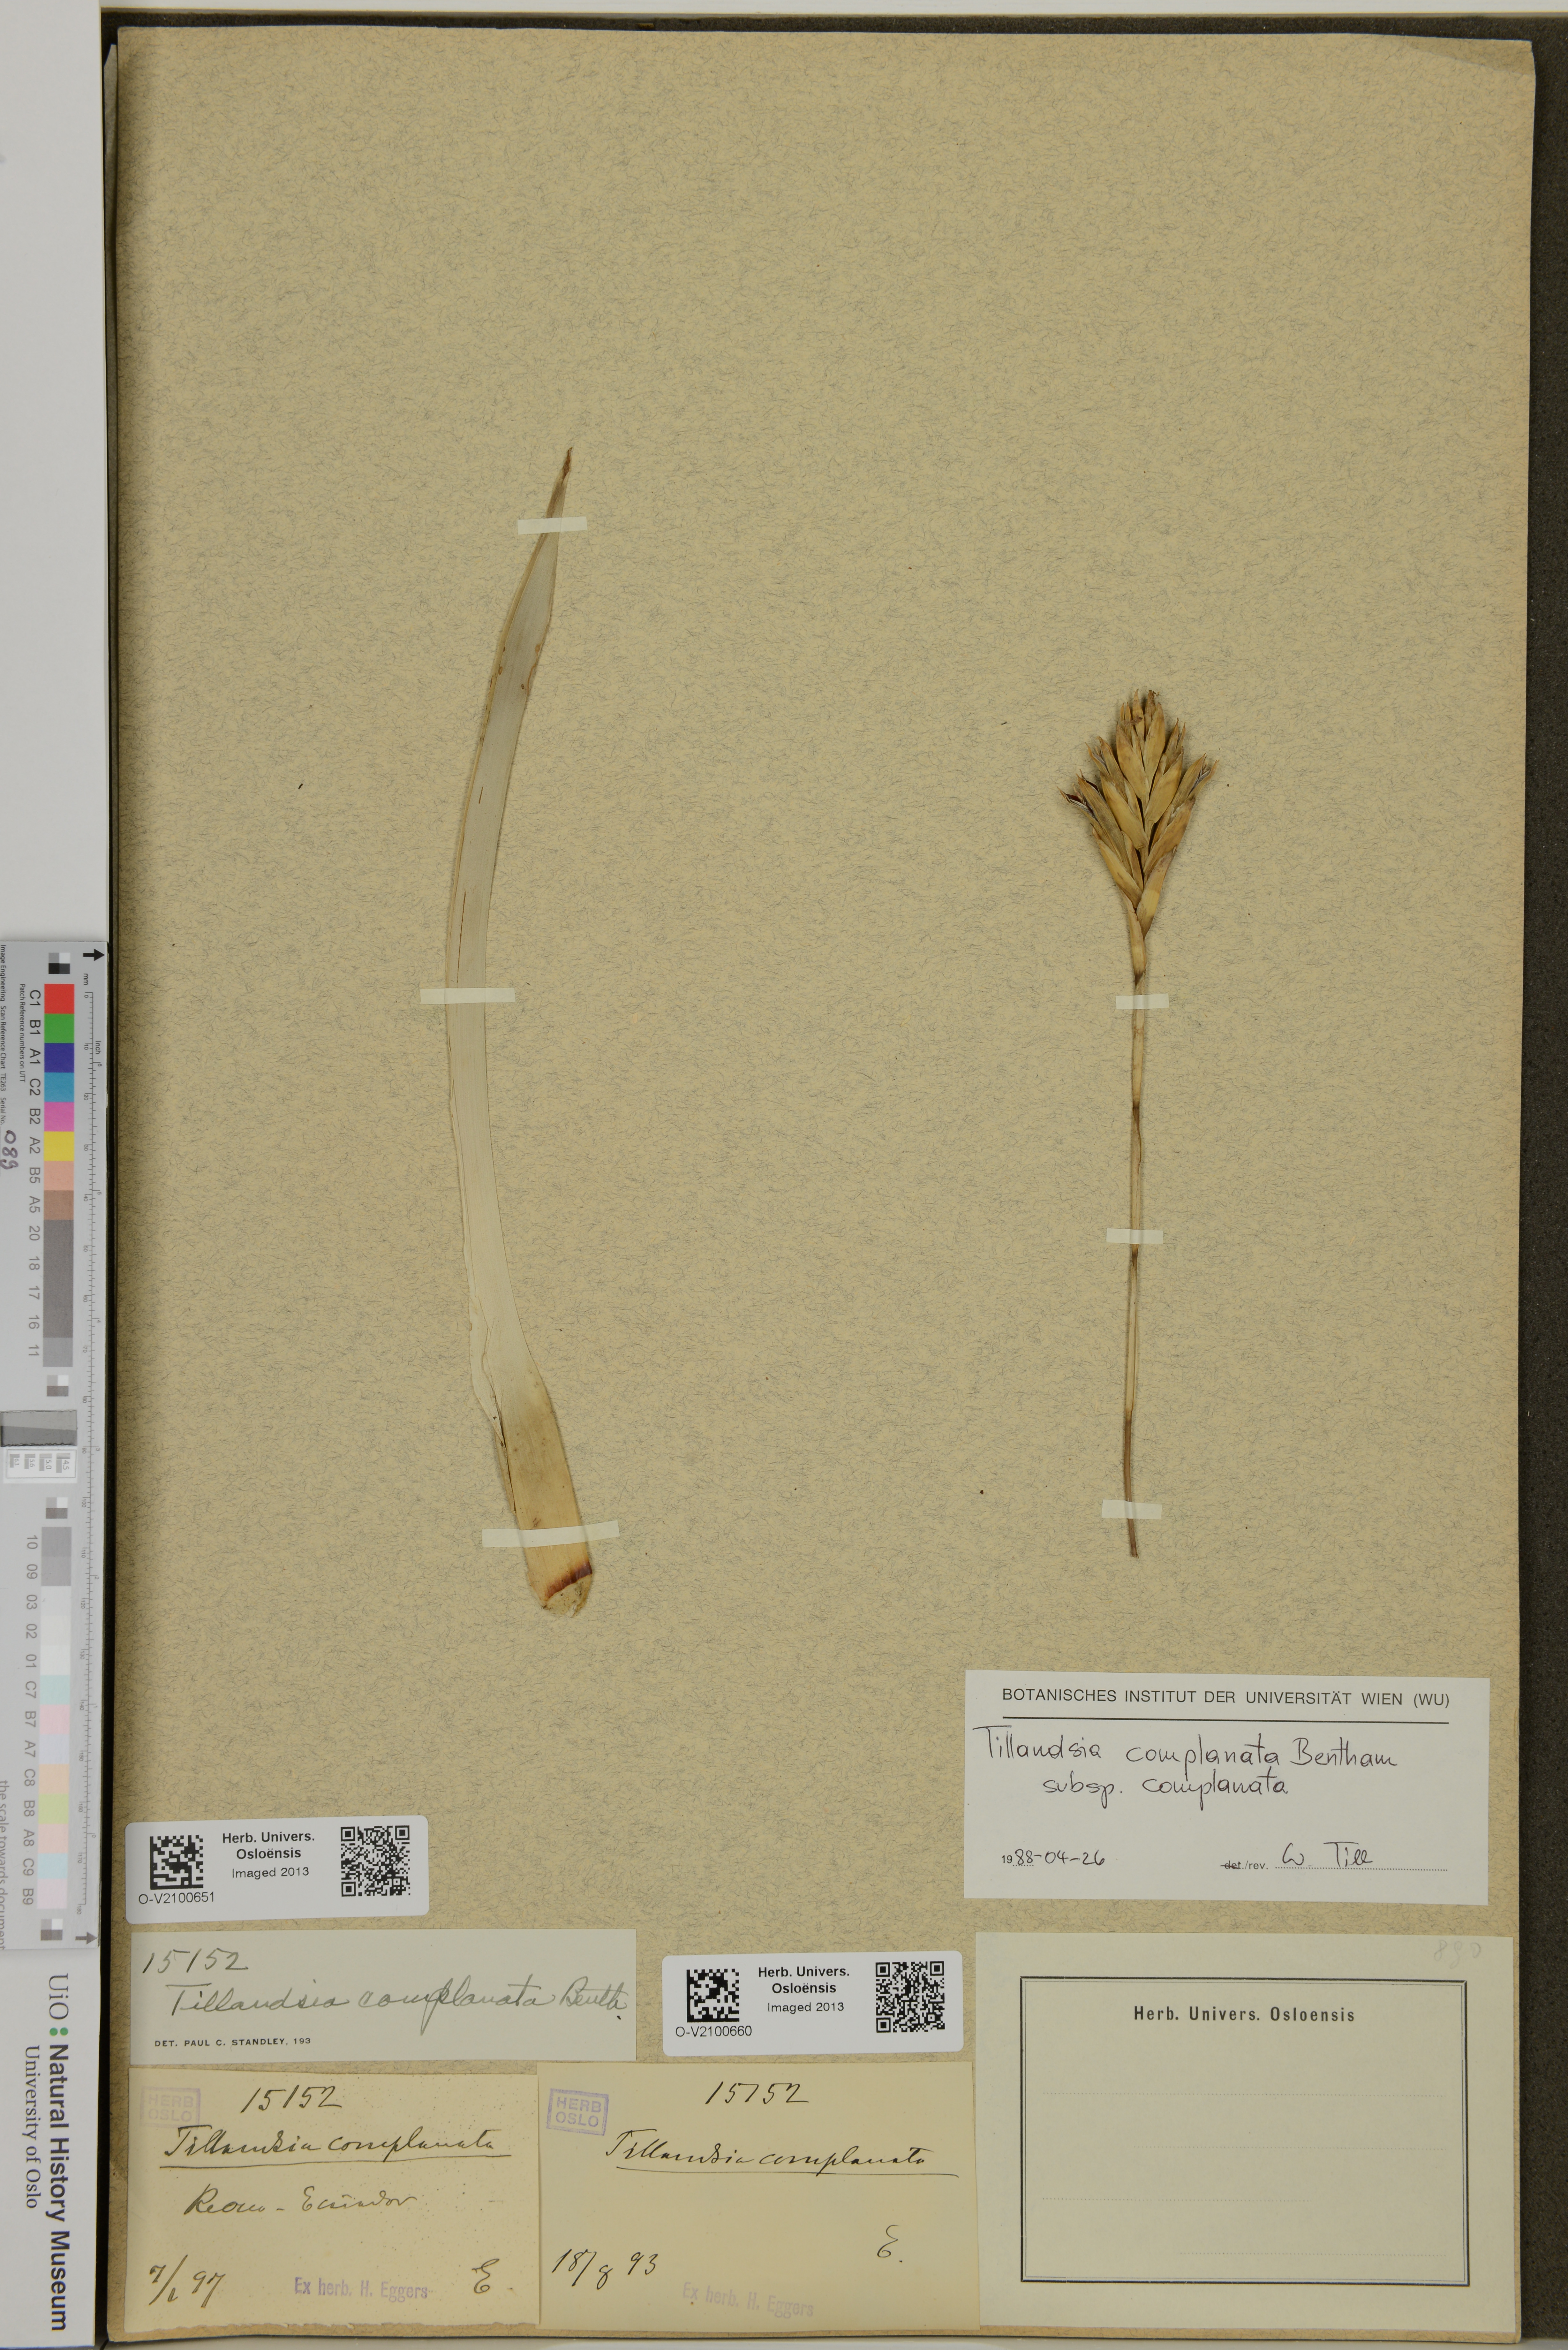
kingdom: Plantae
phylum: Tracheophyta
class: Liliopsida
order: Poales
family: Bromeliaceae
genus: Tillandsia
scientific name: Tillandsia complanata
